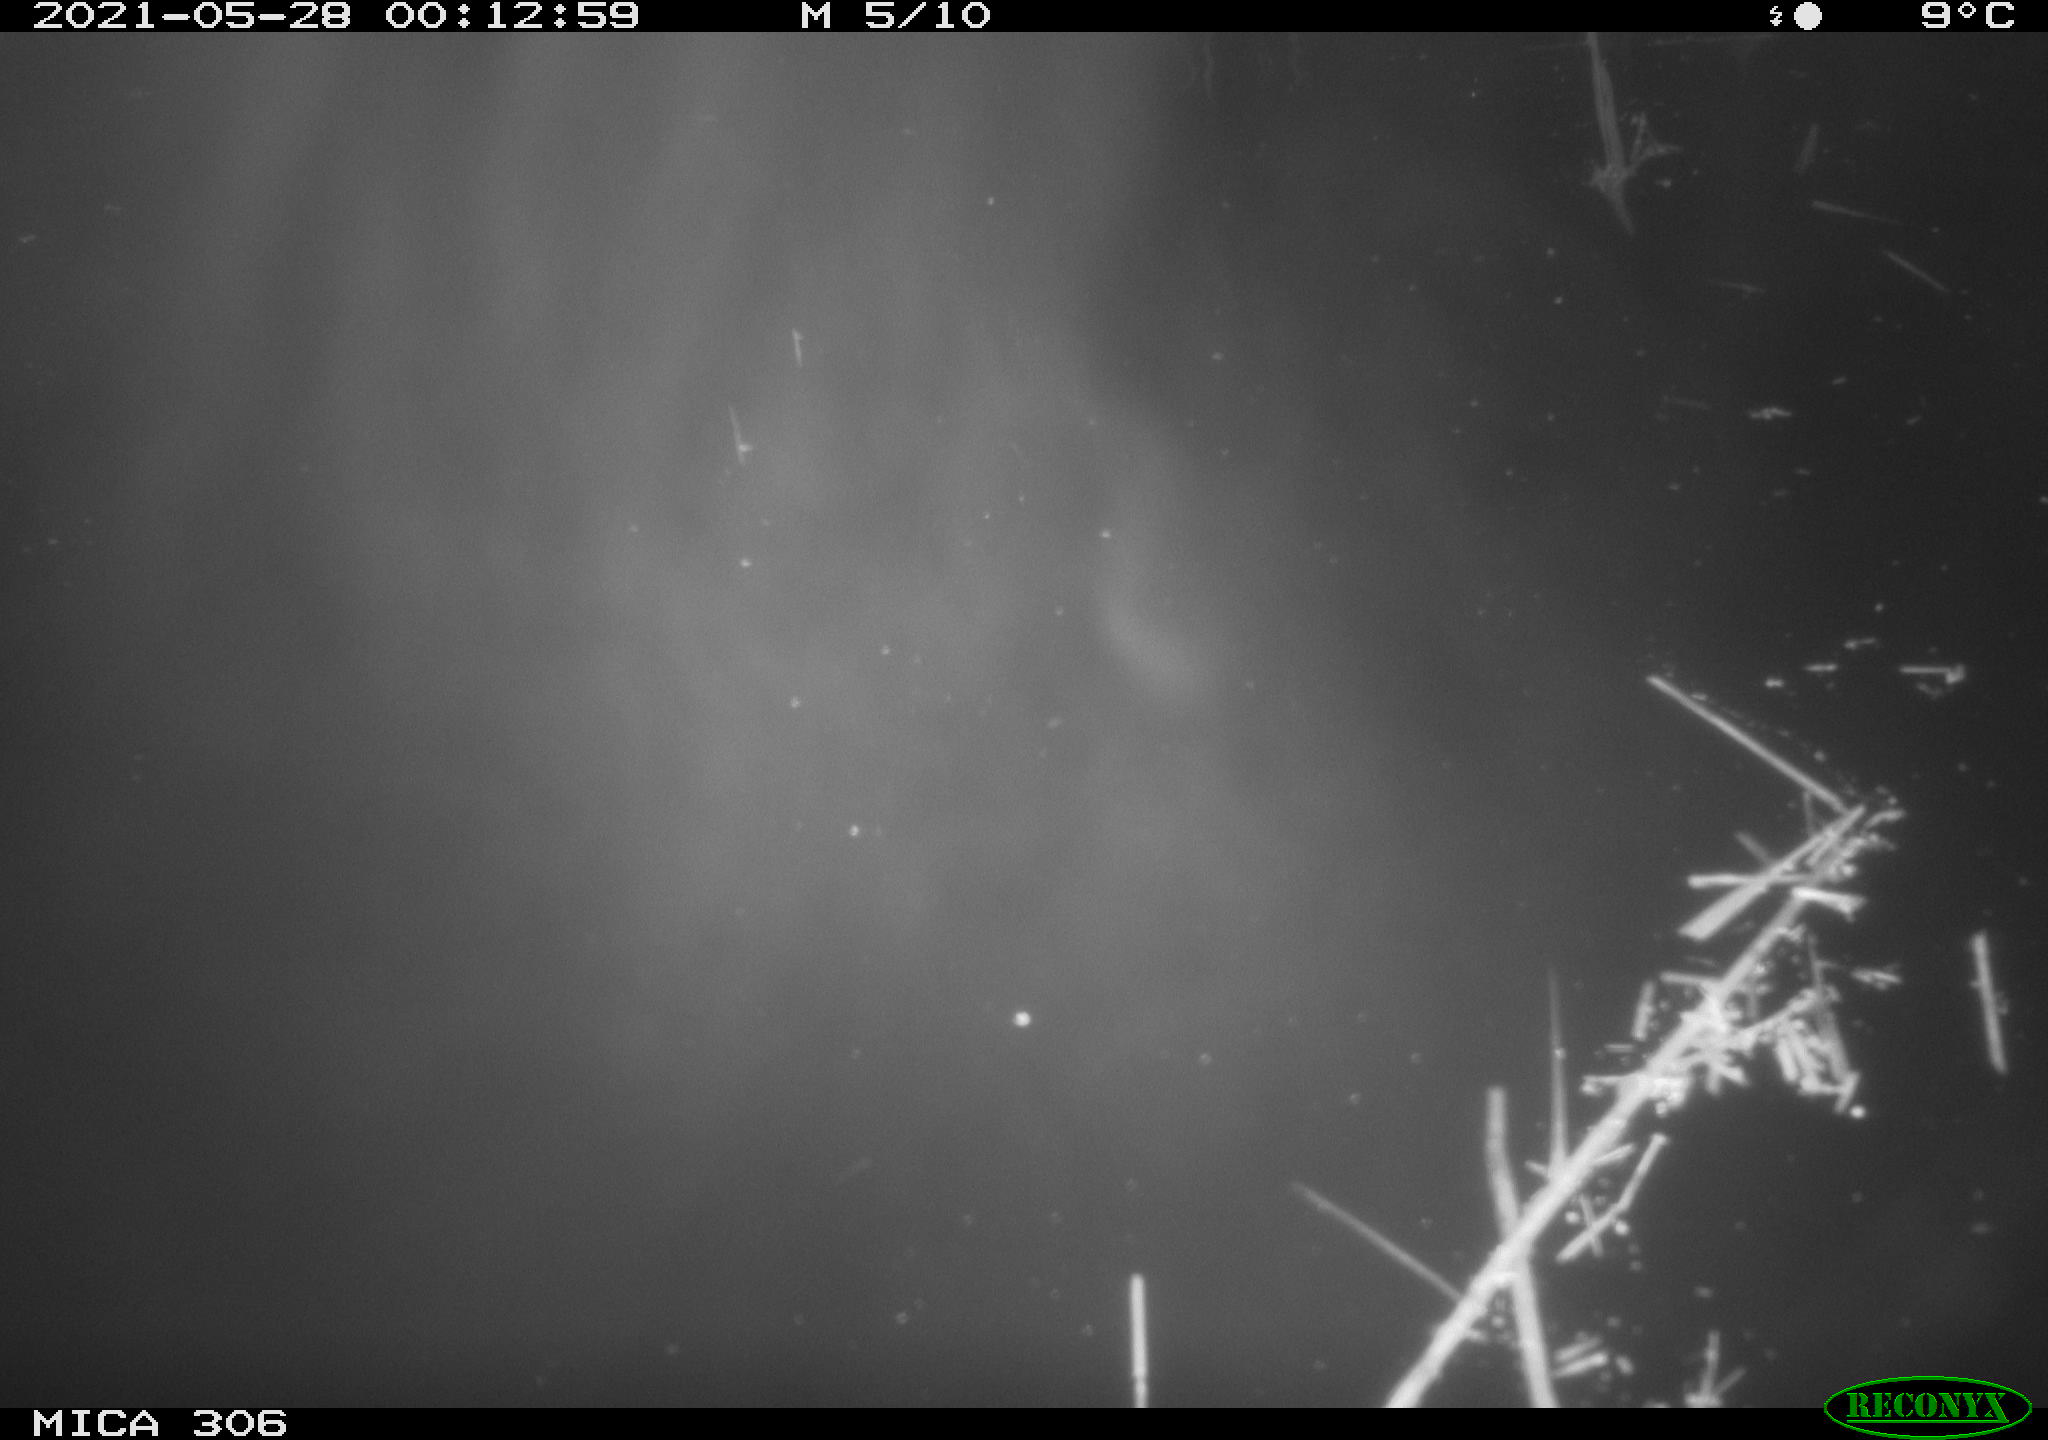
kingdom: Animalia
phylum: Chordata
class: Mammalia
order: Rodentia
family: Cricetidae
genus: Ondatra
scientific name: Ondatra zibethicus
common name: Muskrat
